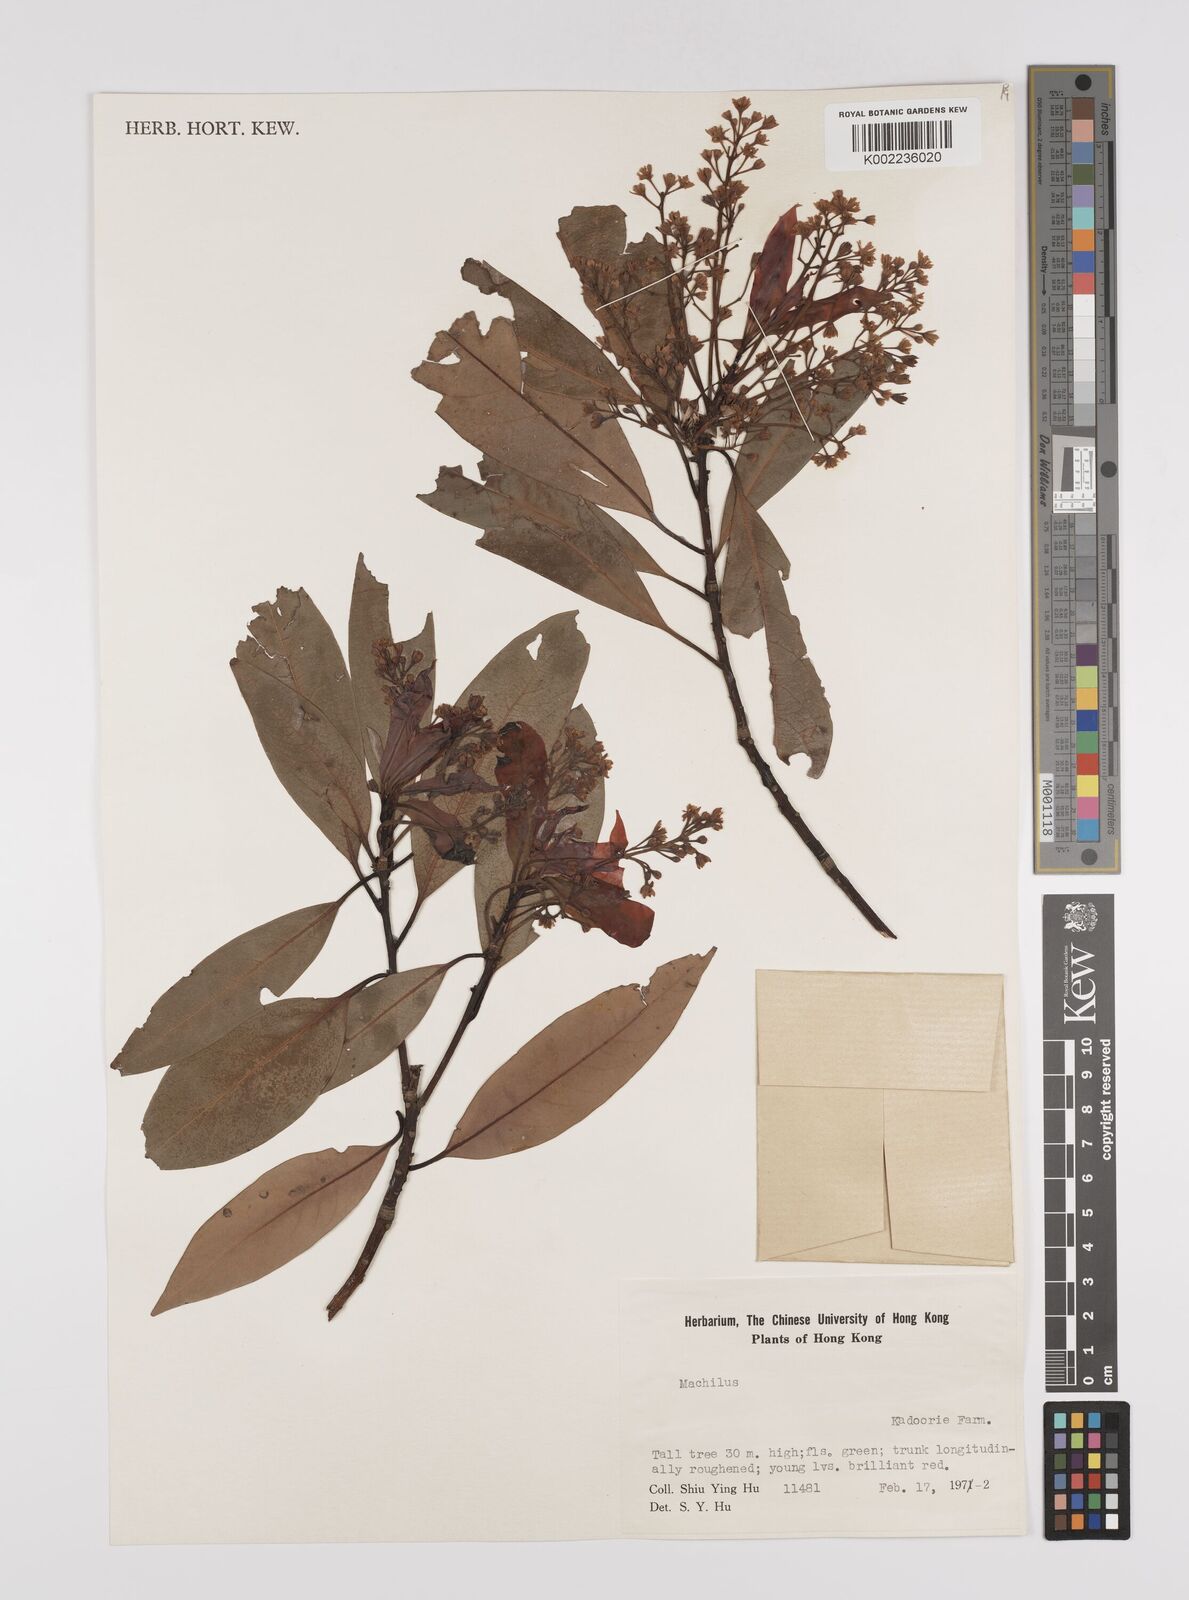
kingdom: Plantae
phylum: Tracheophyta
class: Magnoliopsida
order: Laurales
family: Lauraceae
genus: Persea
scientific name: Persea
